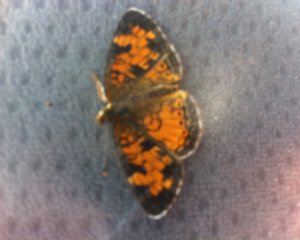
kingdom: Animalia
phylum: Arthropoda
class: Insecta
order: Lepidoptera
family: Nymphalidae
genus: Phyciodes
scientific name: Phyciodes tharos
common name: Northern Crescent
